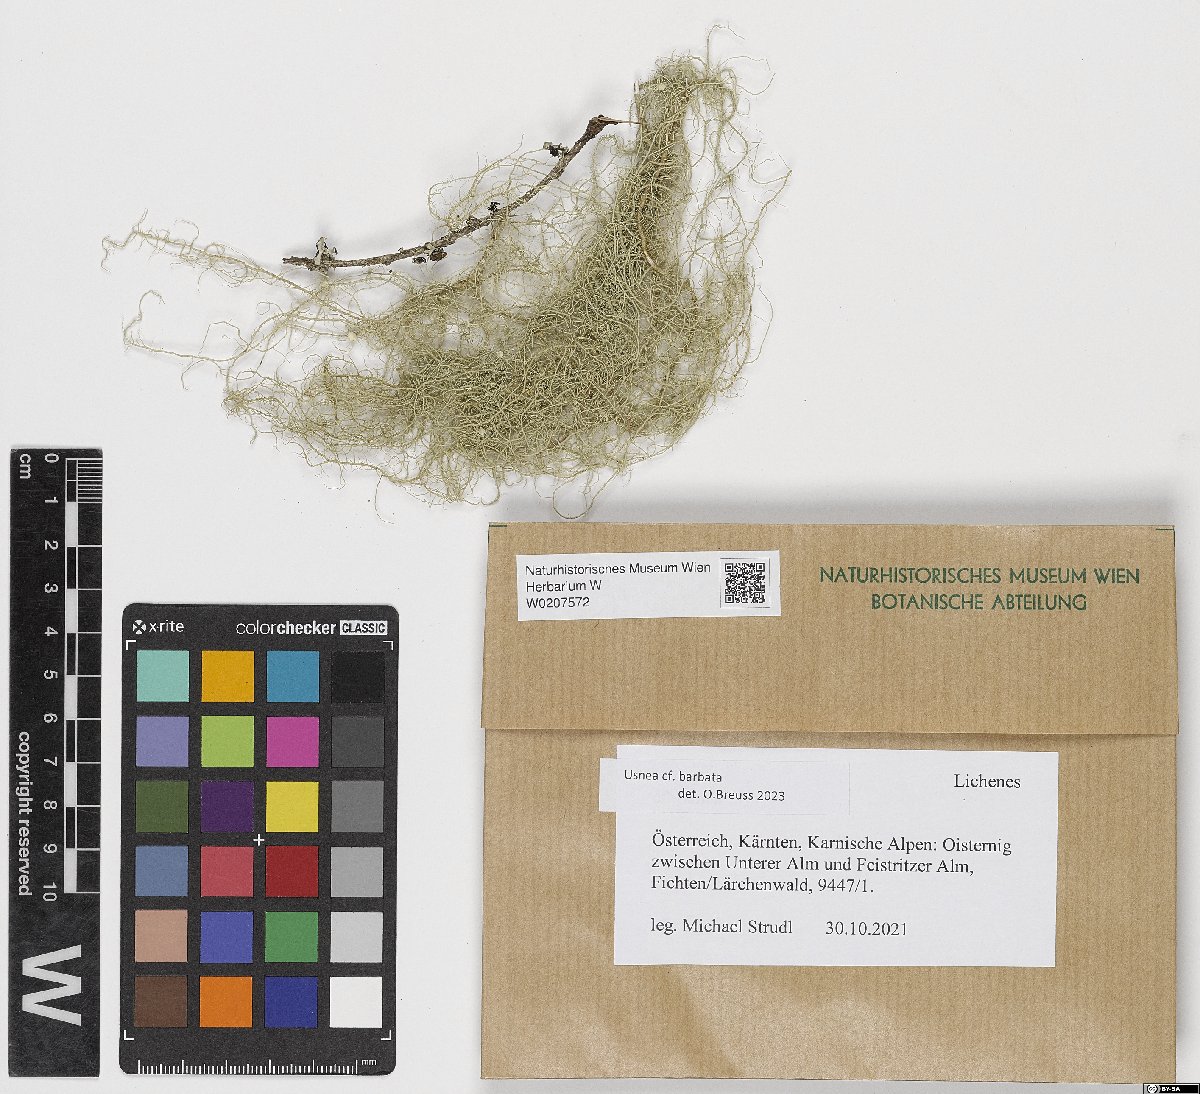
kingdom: Fungi
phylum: Ascomycota
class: Lecanoromycetes
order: Lecanorales
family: Parmeliaceae
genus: Usnea
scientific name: Usnea barbata
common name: Old man's beard lichen
